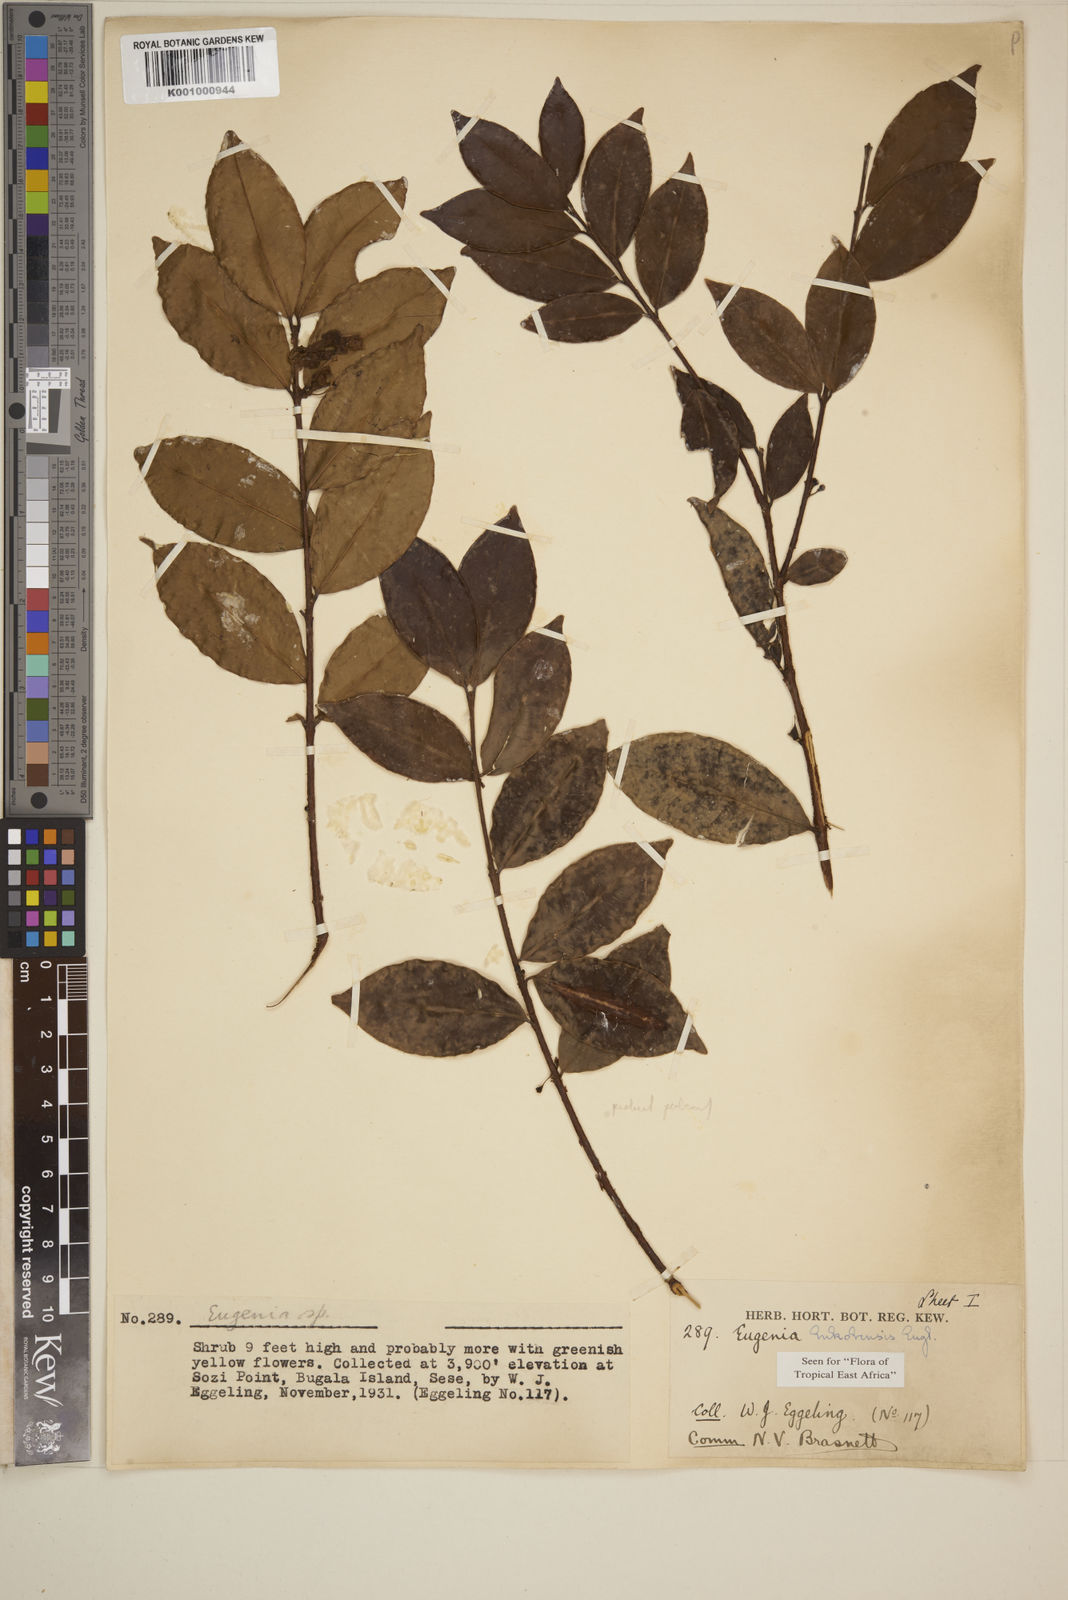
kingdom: Plantae
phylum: Tracheophyta
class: Magnoliopsida
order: Myrtales
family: Myrtaceae
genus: Eugenia
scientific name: Eugenia bukobensis
